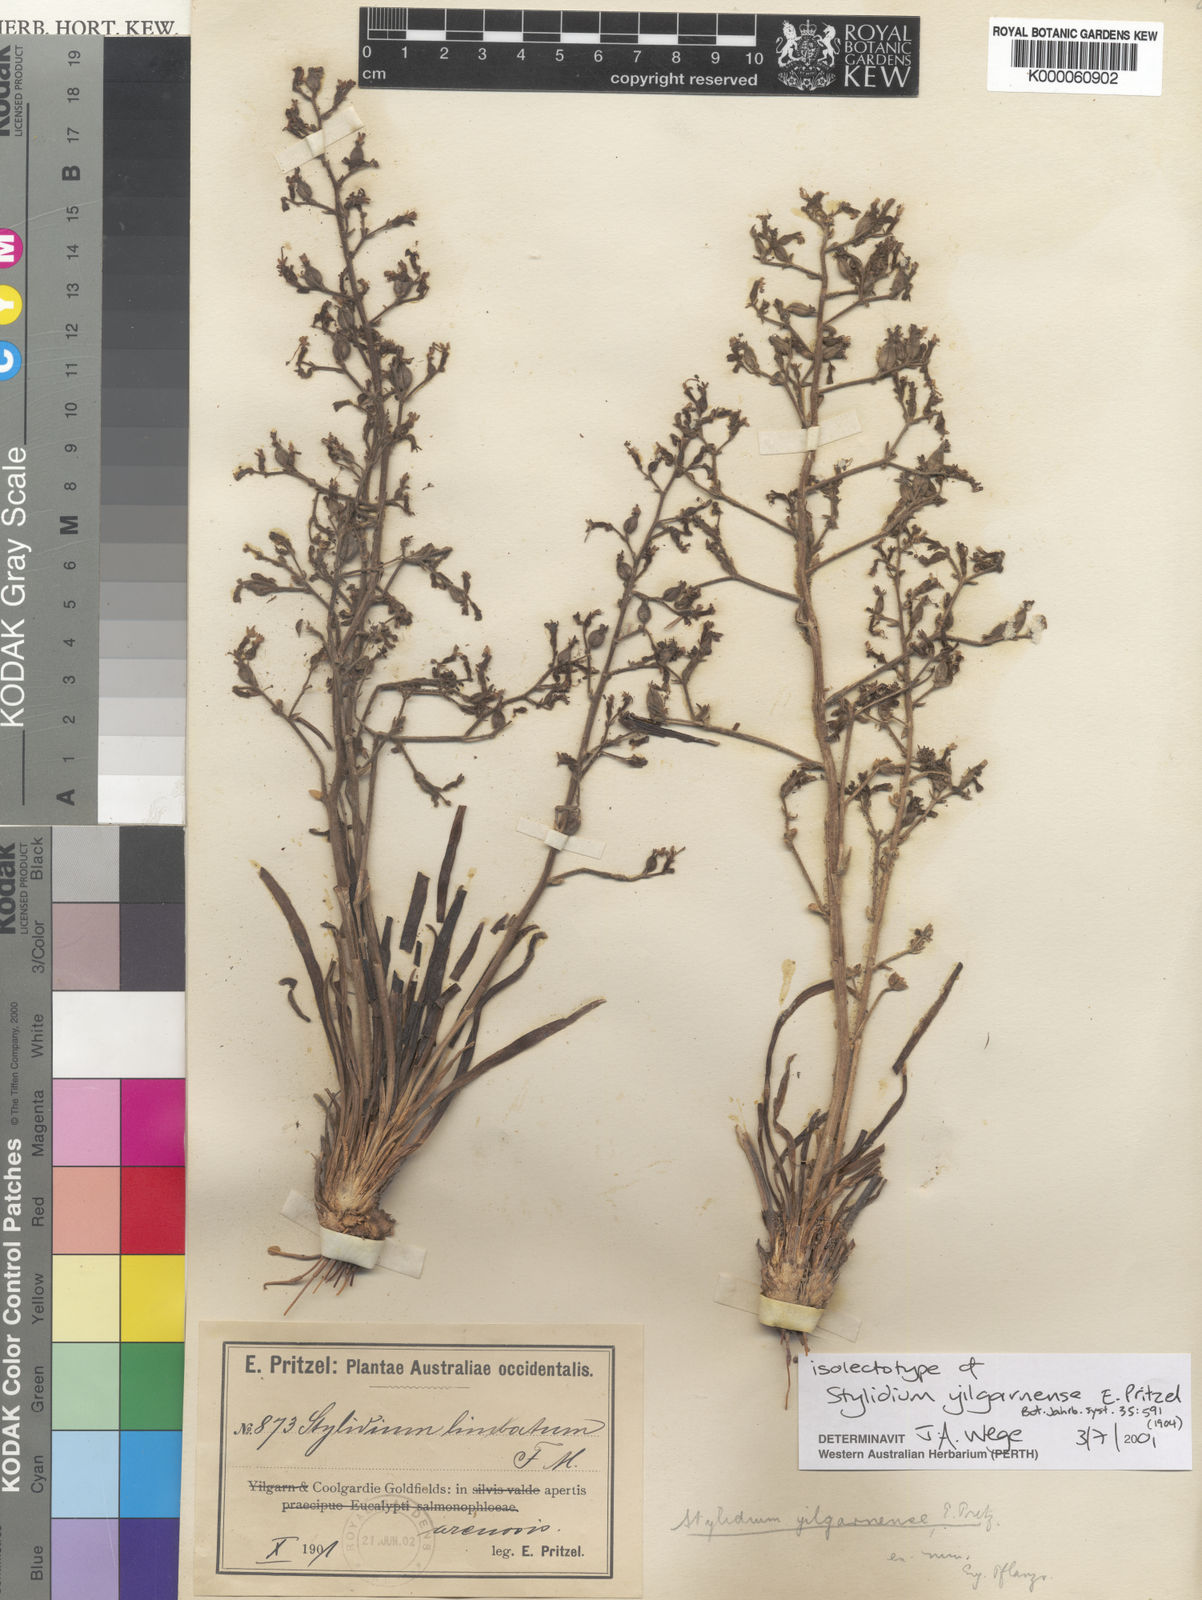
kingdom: Plantae
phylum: Tracheophyta
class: Magnoliopsida
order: Asterales
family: Stylidiaceae
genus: Stylidium
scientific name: Stylidium yilgarnense
